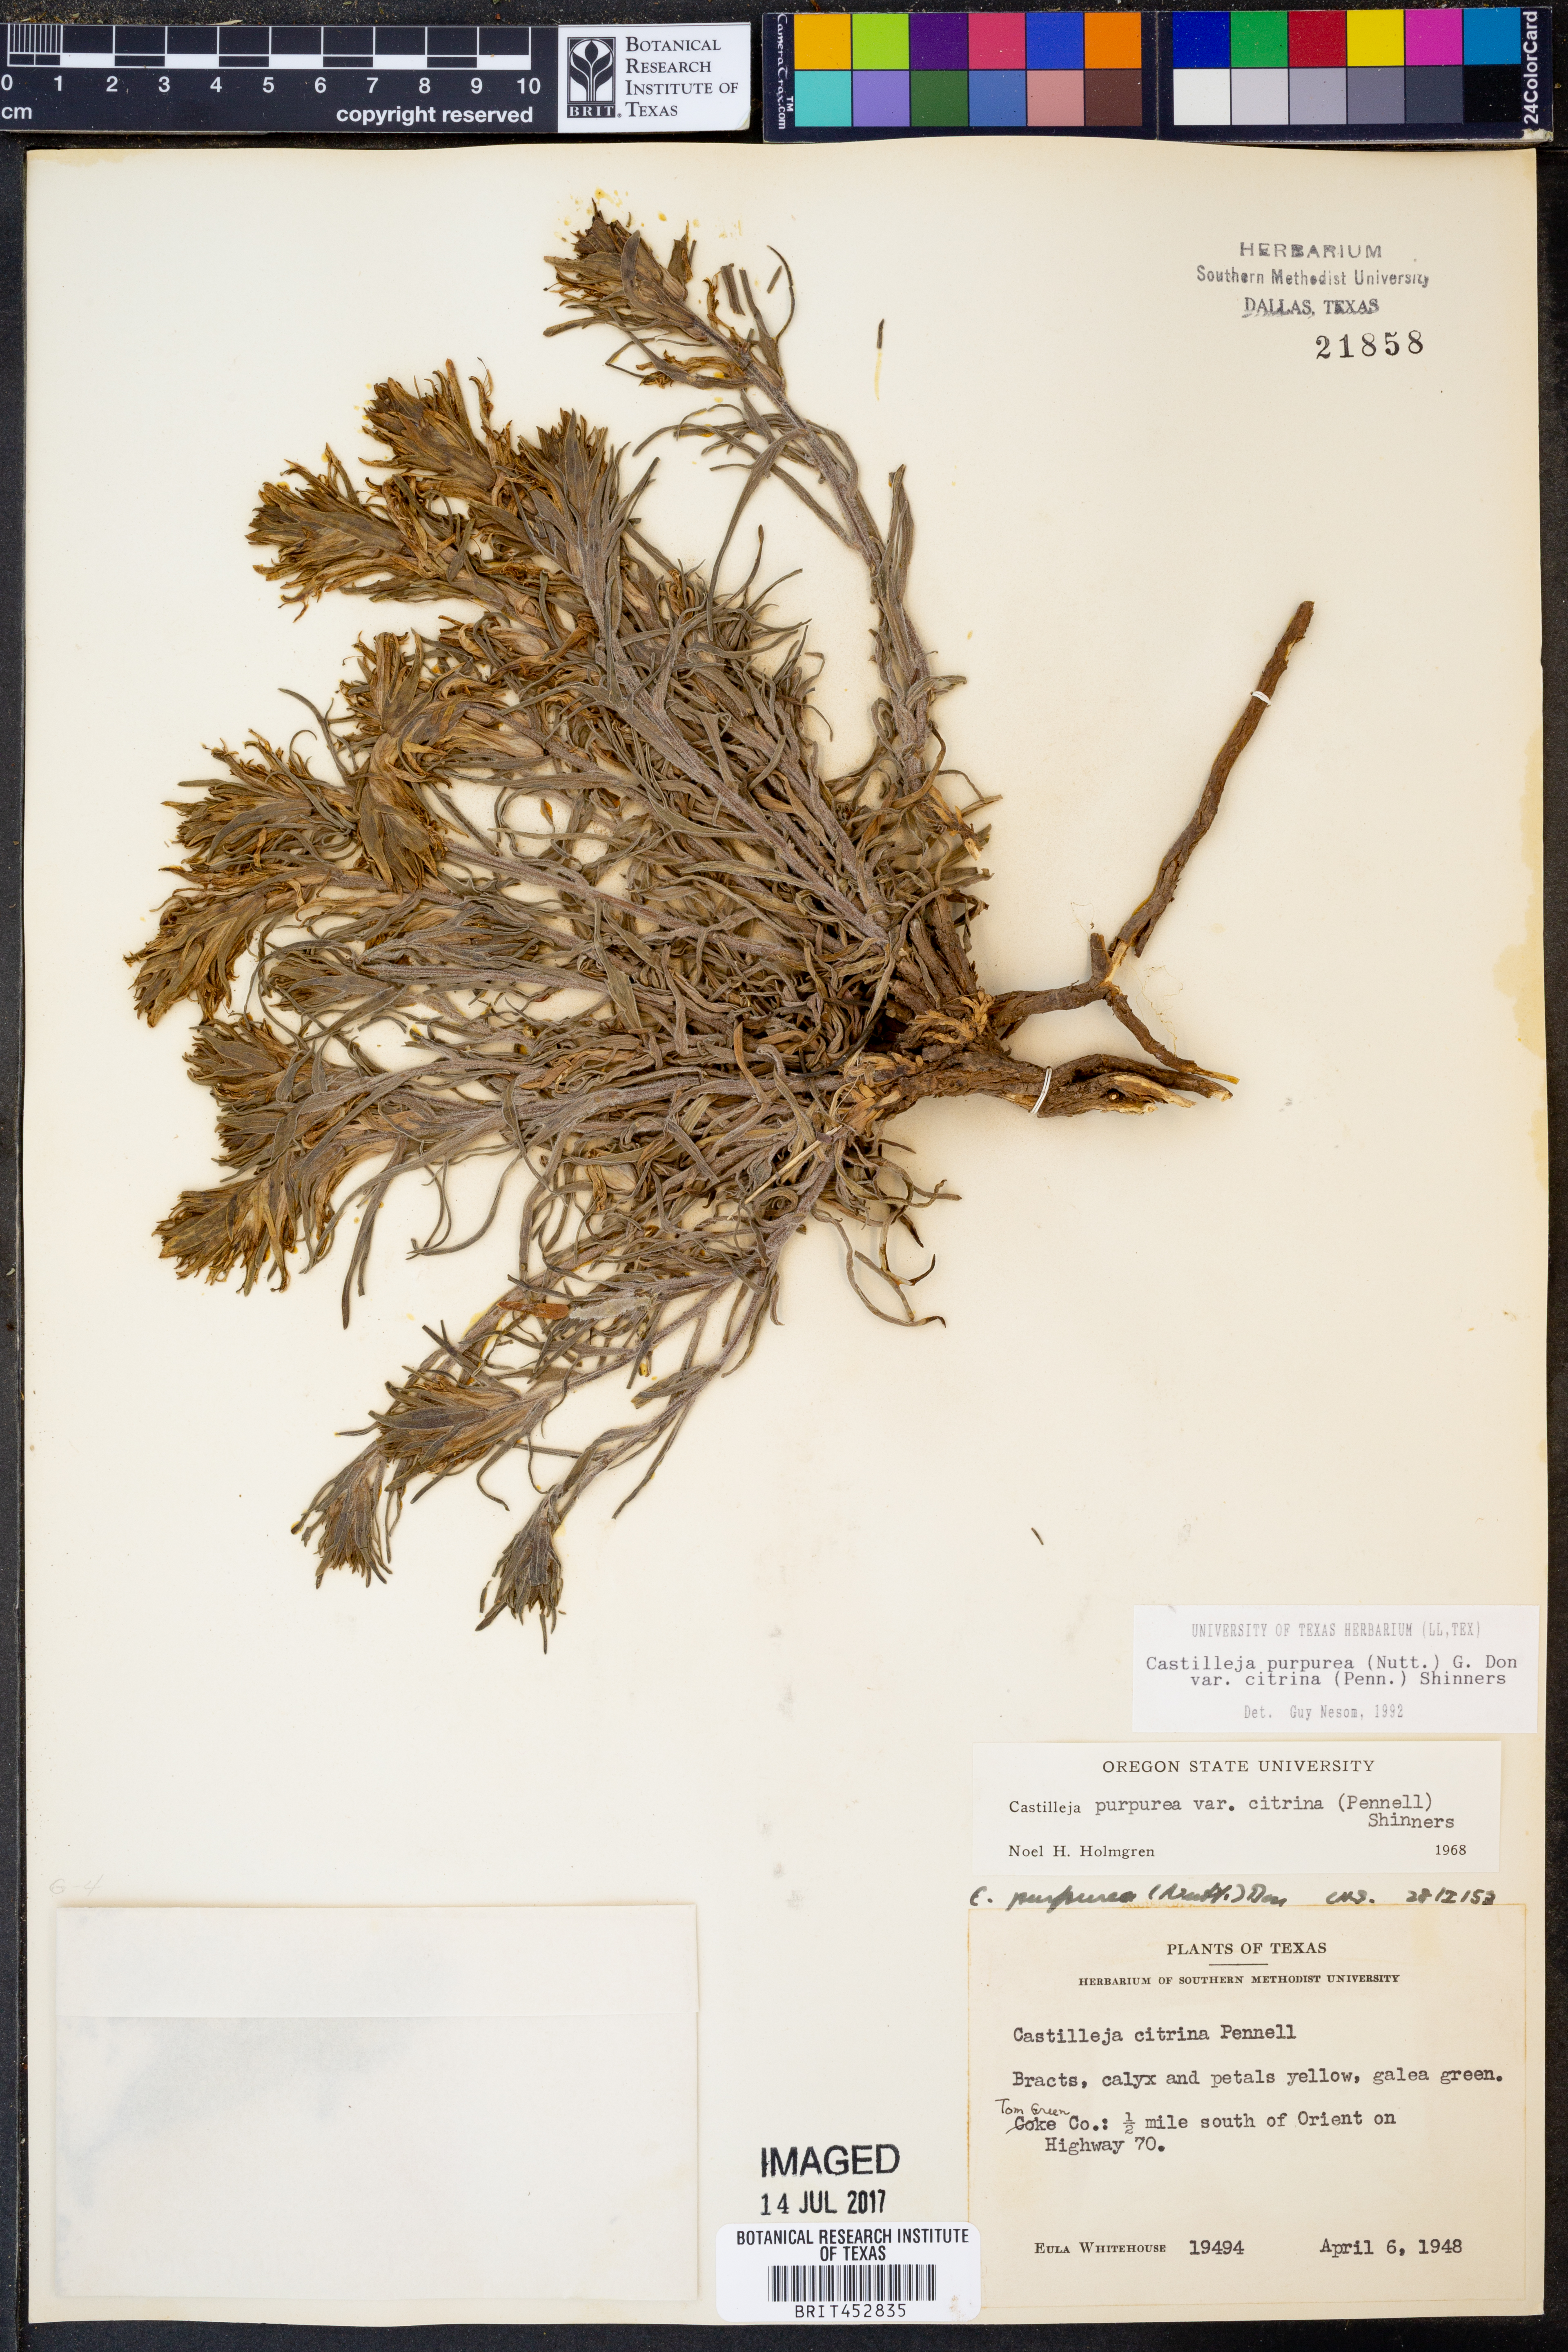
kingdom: Plantae
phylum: Tracheophyta
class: Magnoliopsida
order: Lamiales
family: Orobanchaceae
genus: Castilleja
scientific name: Castilleja citrina
